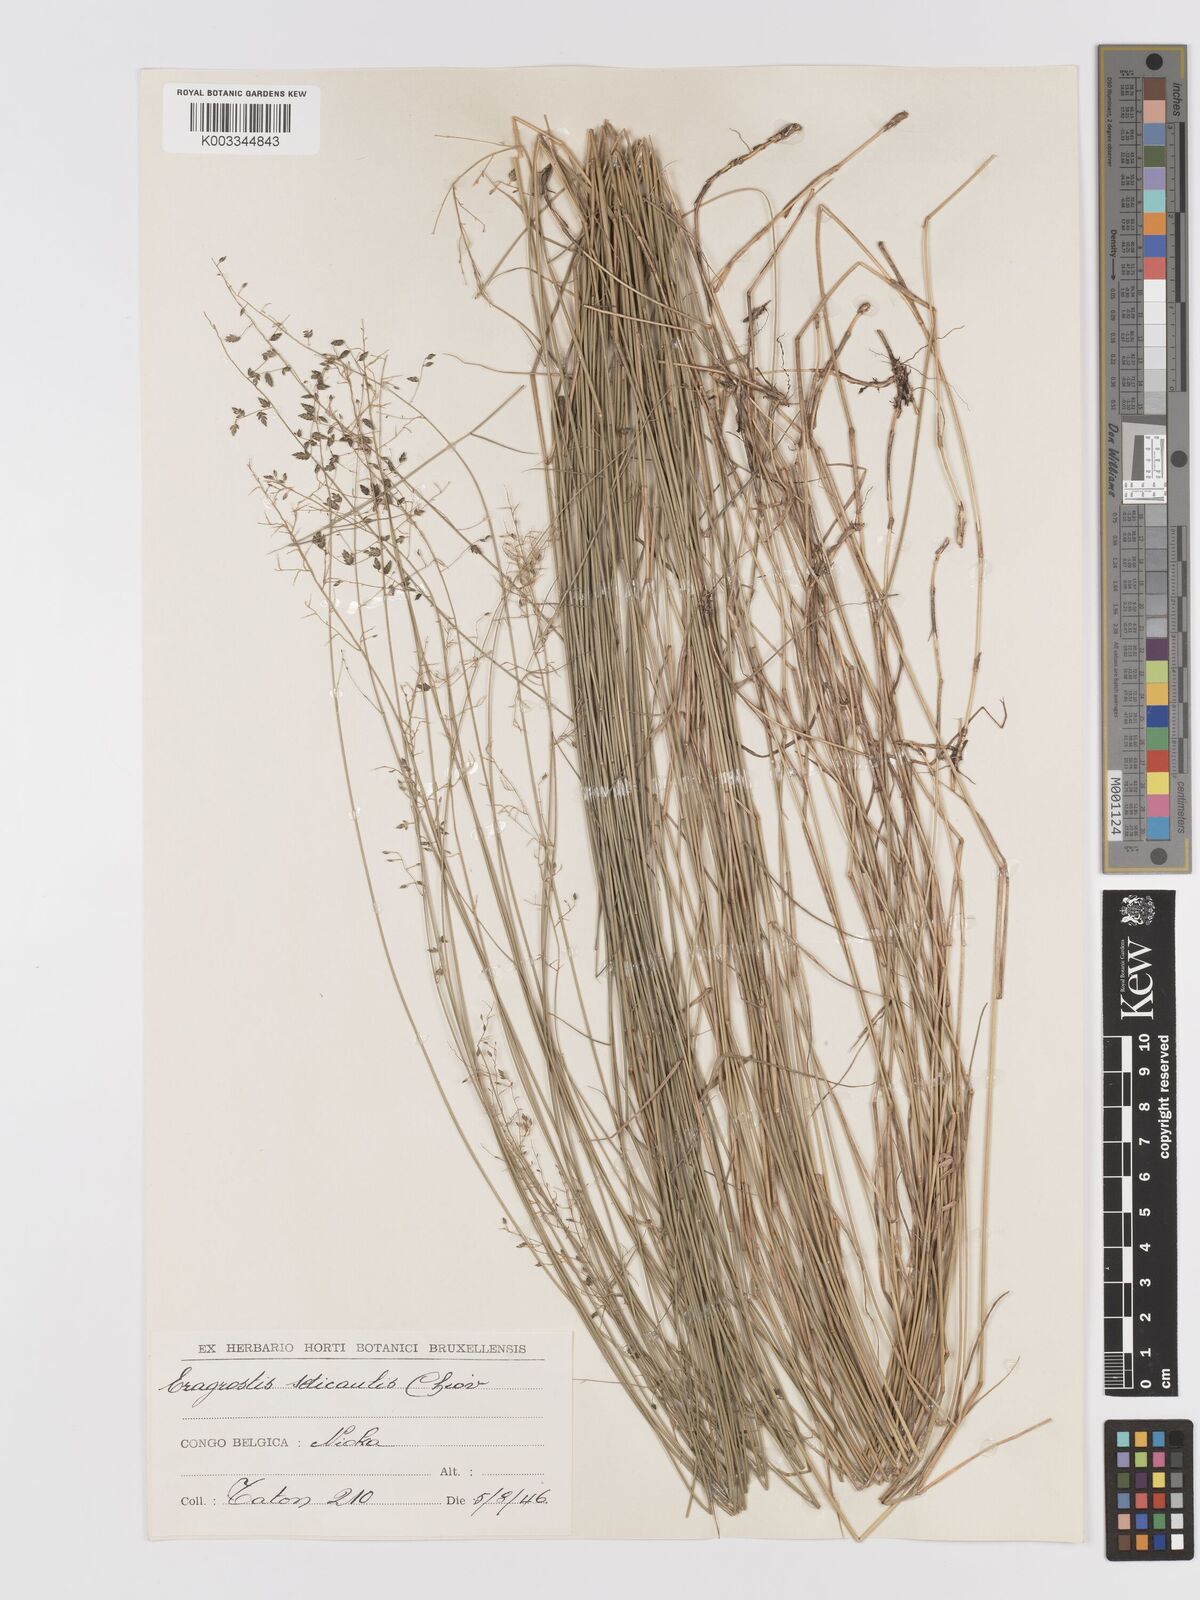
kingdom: Plantae
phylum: Tracheophyta
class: Liliopsida
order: Poales
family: Poaceae
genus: Eragrostis
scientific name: Eragrostis volkensii
